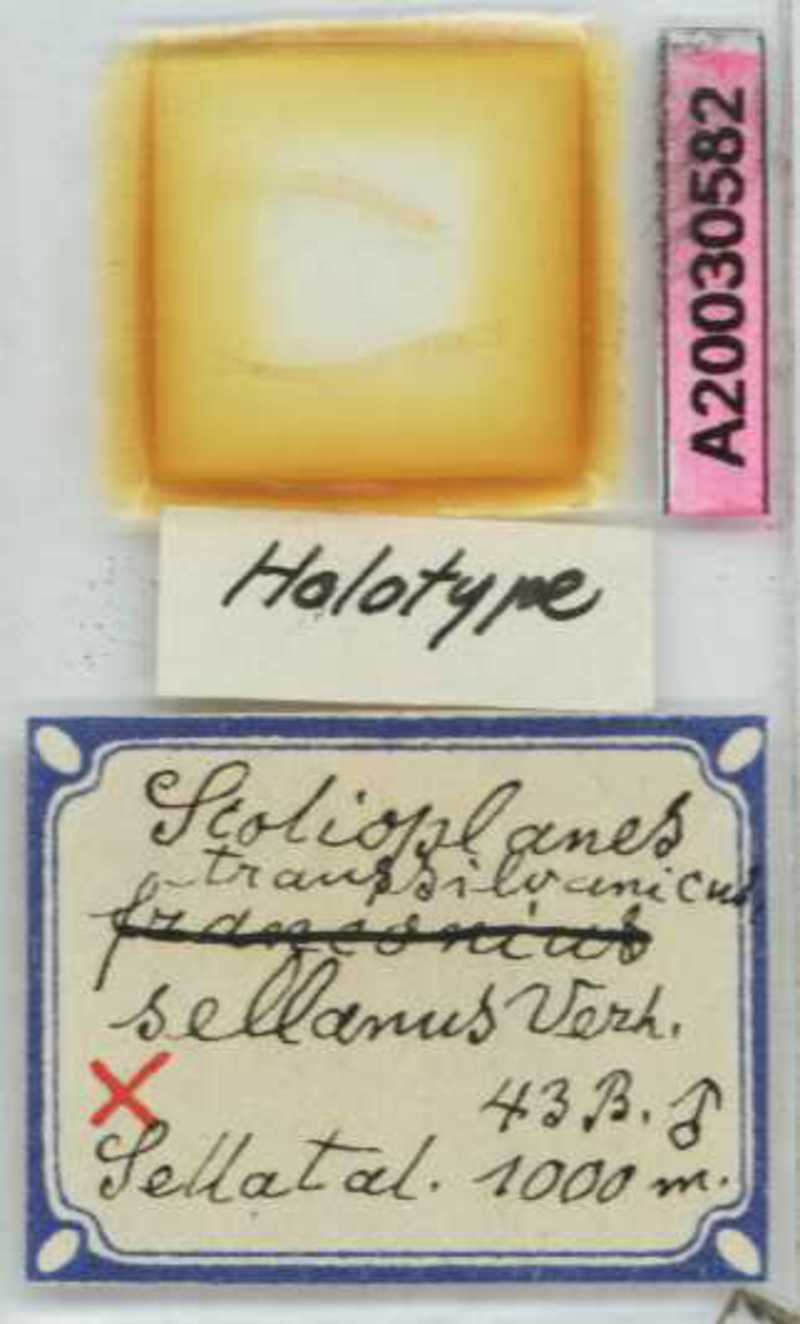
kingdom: Animalia
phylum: Arthropoda
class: Chilopoda
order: Geophilomorpha
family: Linotaeniidae
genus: Strigamia
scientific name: Strigamia transsilvanica
